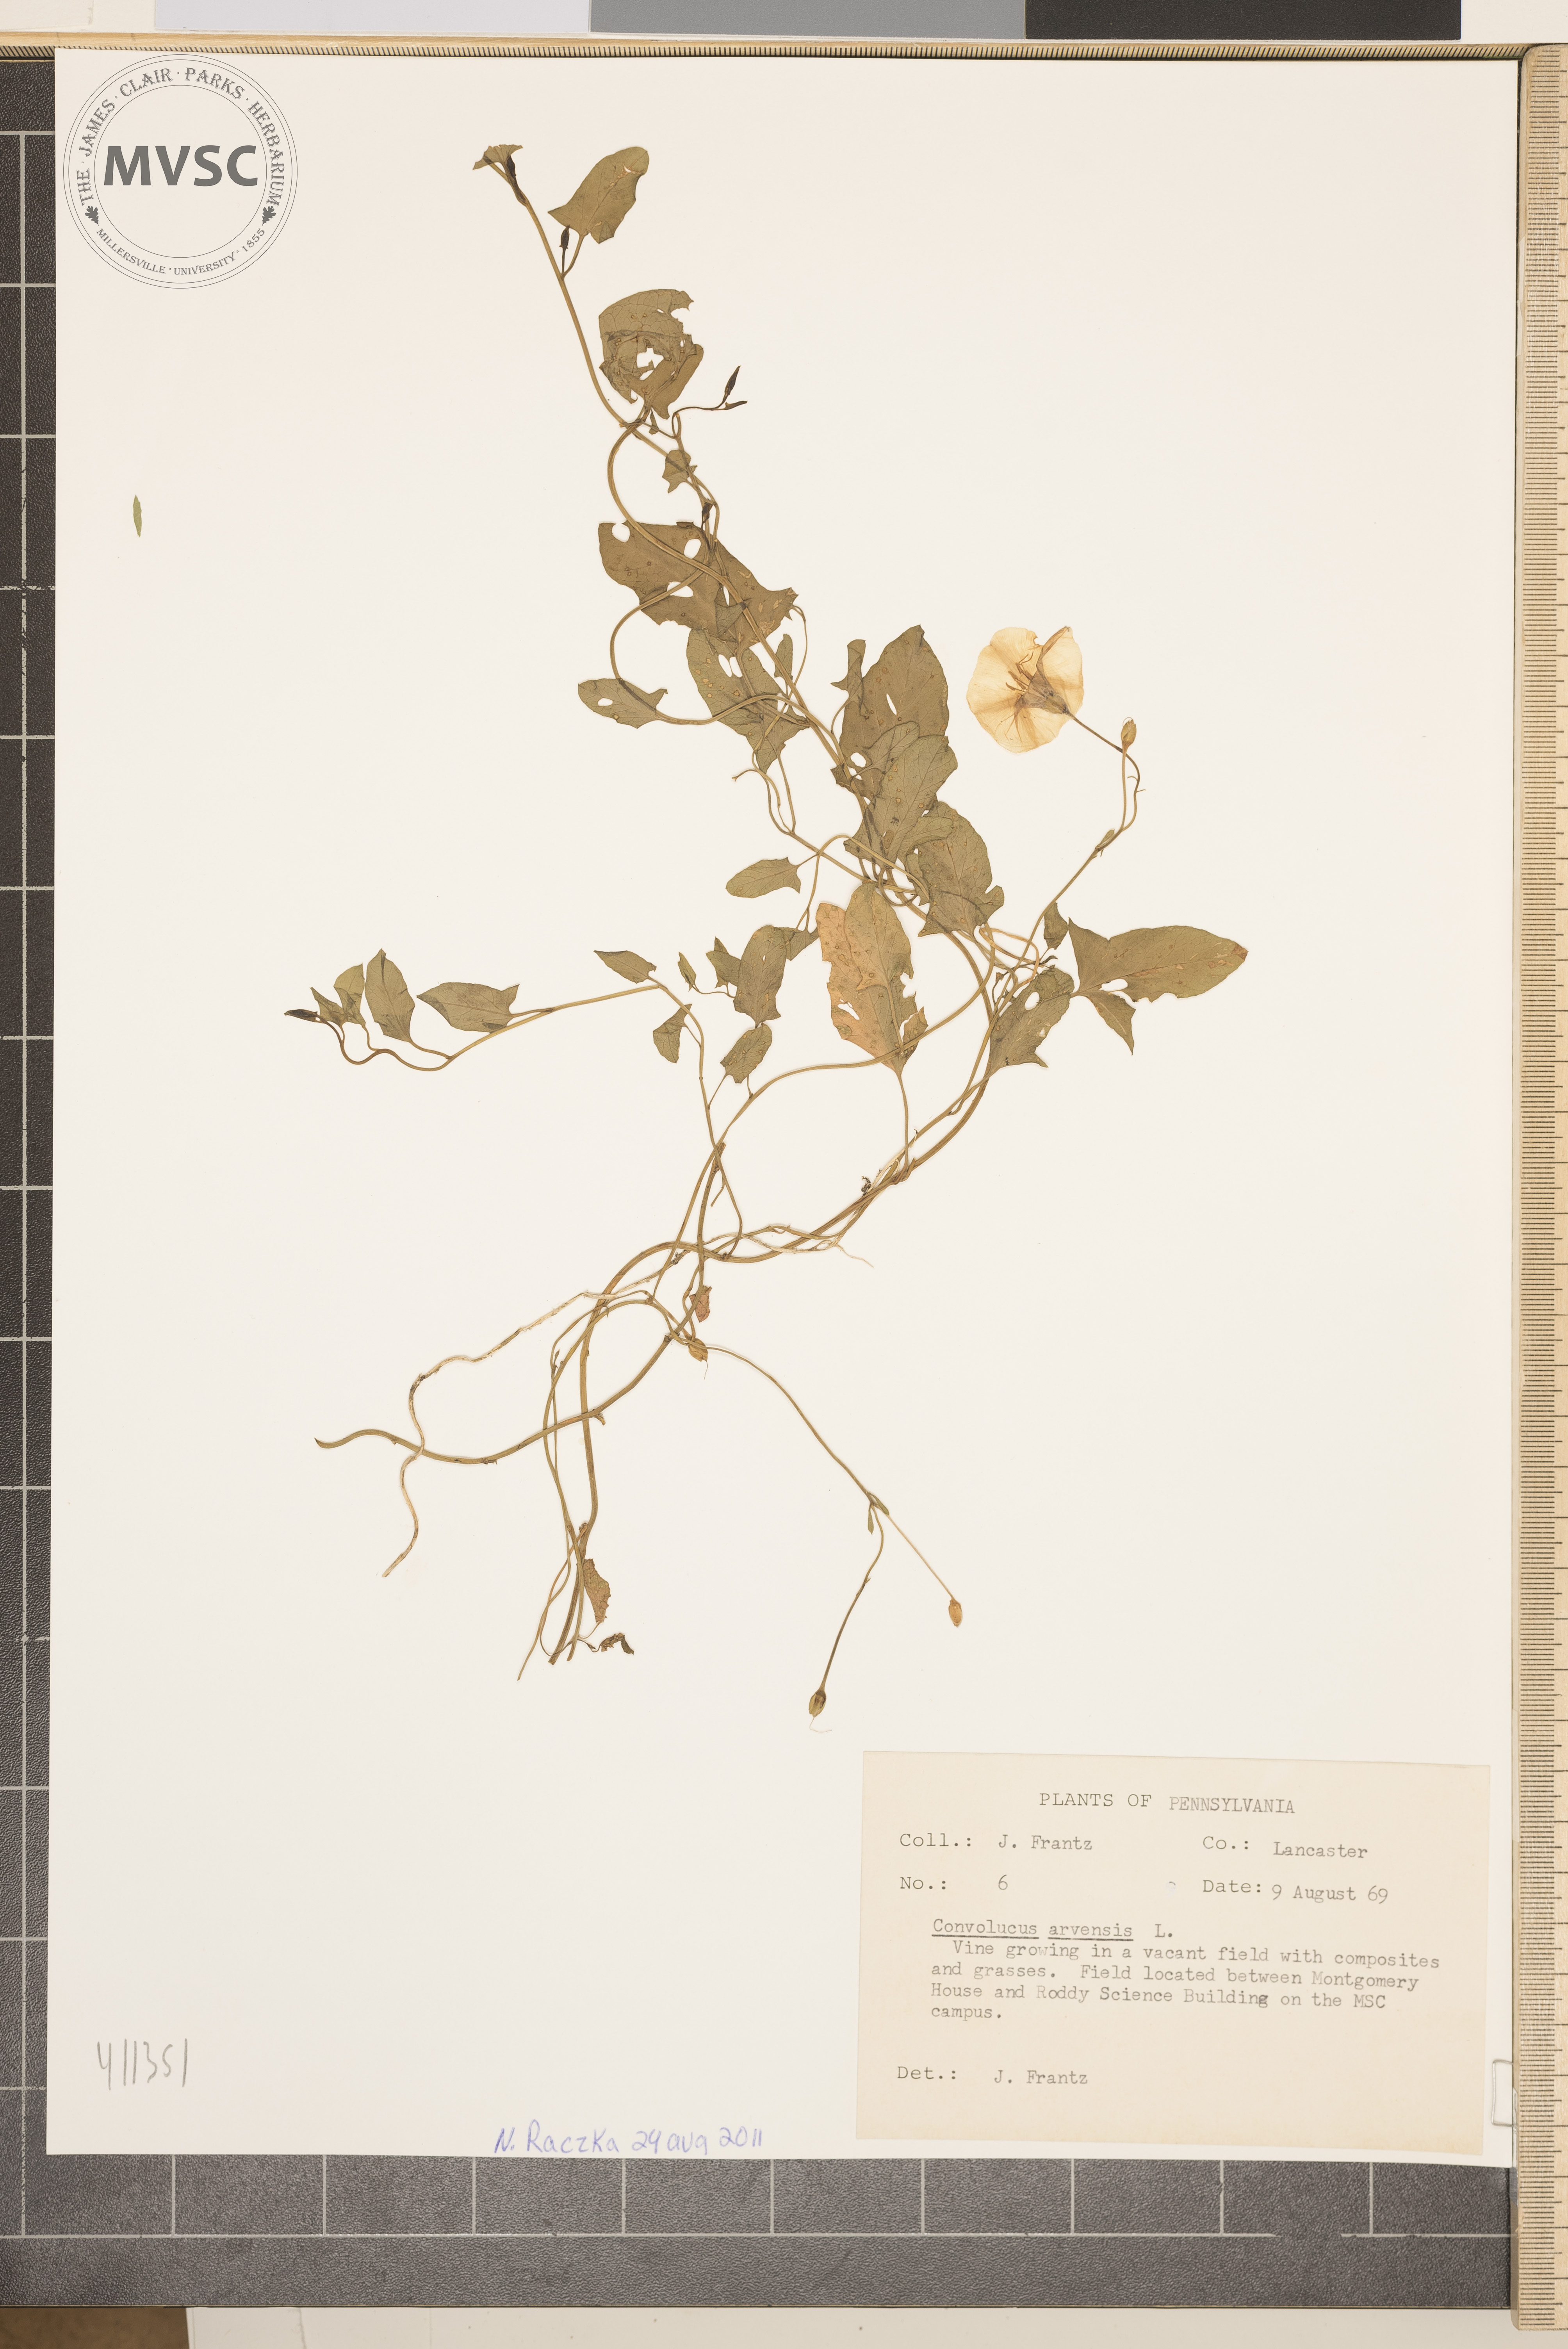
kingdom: Plantae
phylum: Tracheophyta
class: Magnoliopsida
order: Solanales
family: Convolvulaceae
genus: Convolvulus
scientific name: Convolvulus arvensis
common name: Field bindweed
